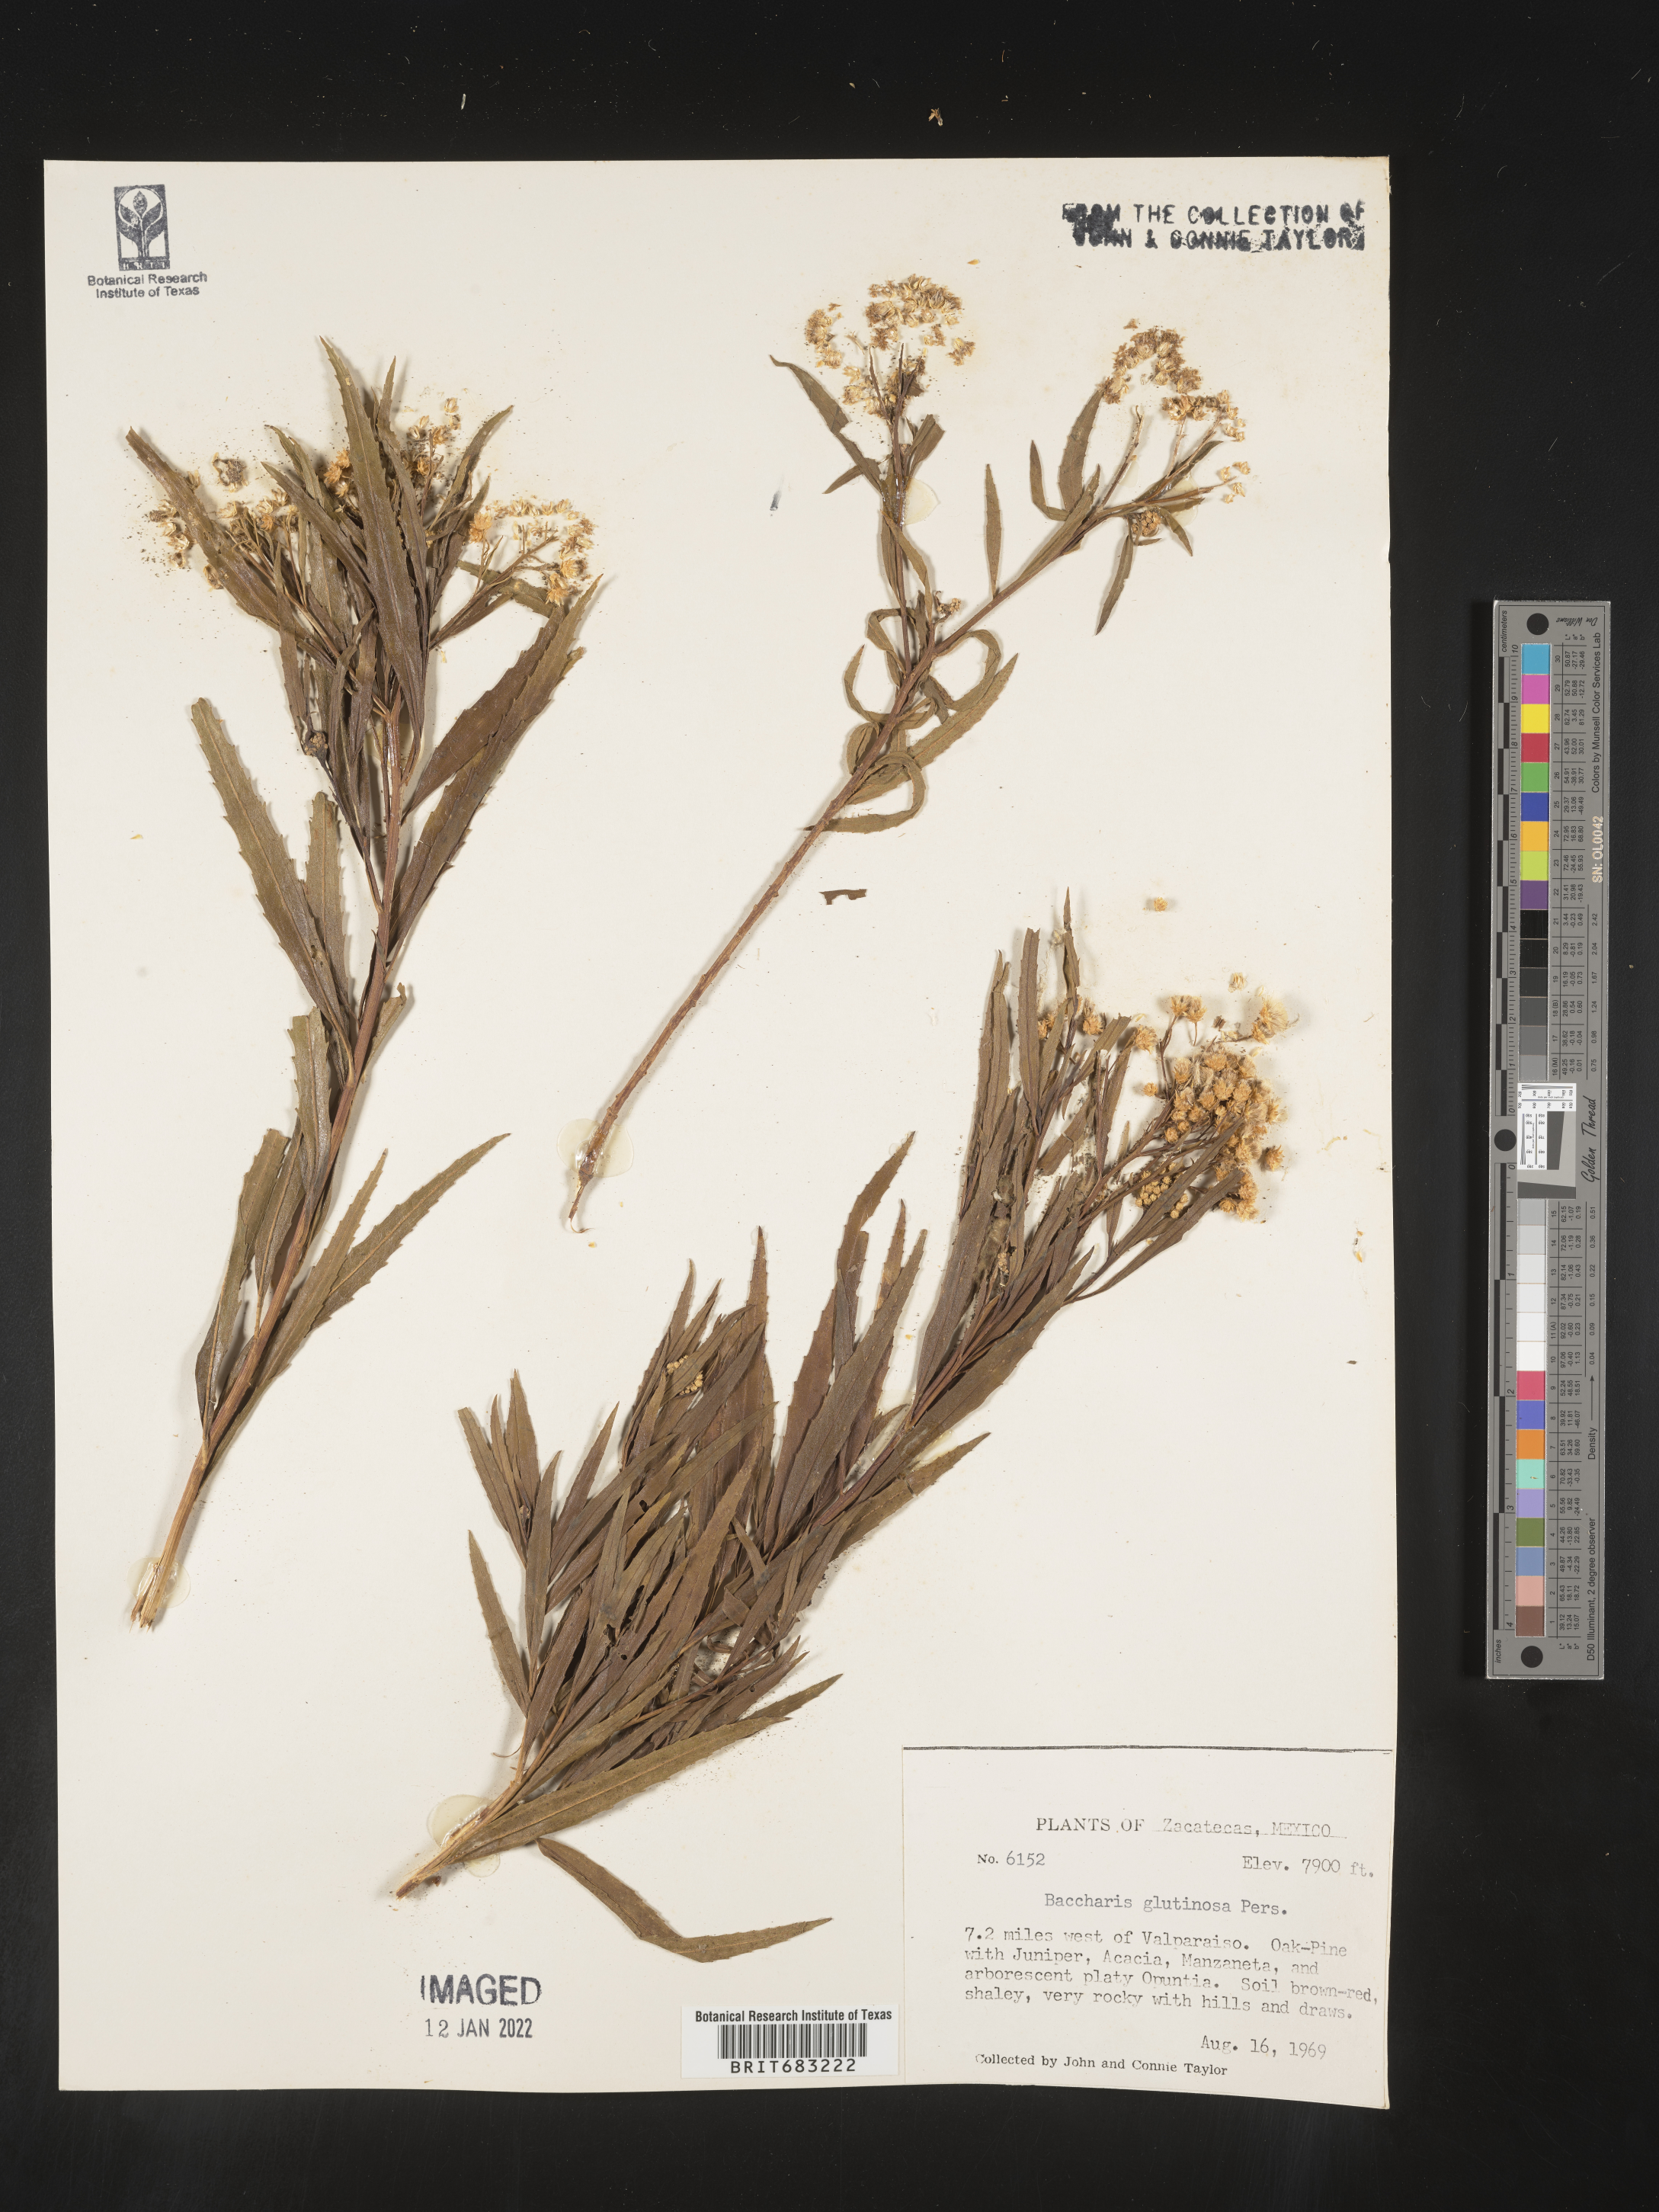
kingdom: Plantae
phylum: Tracheophyta
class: Magnoliopsida
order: Asterales
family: Asteraceae
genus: Baccharis
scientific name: Baccharis salicifolia
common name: Sticky baccharis
